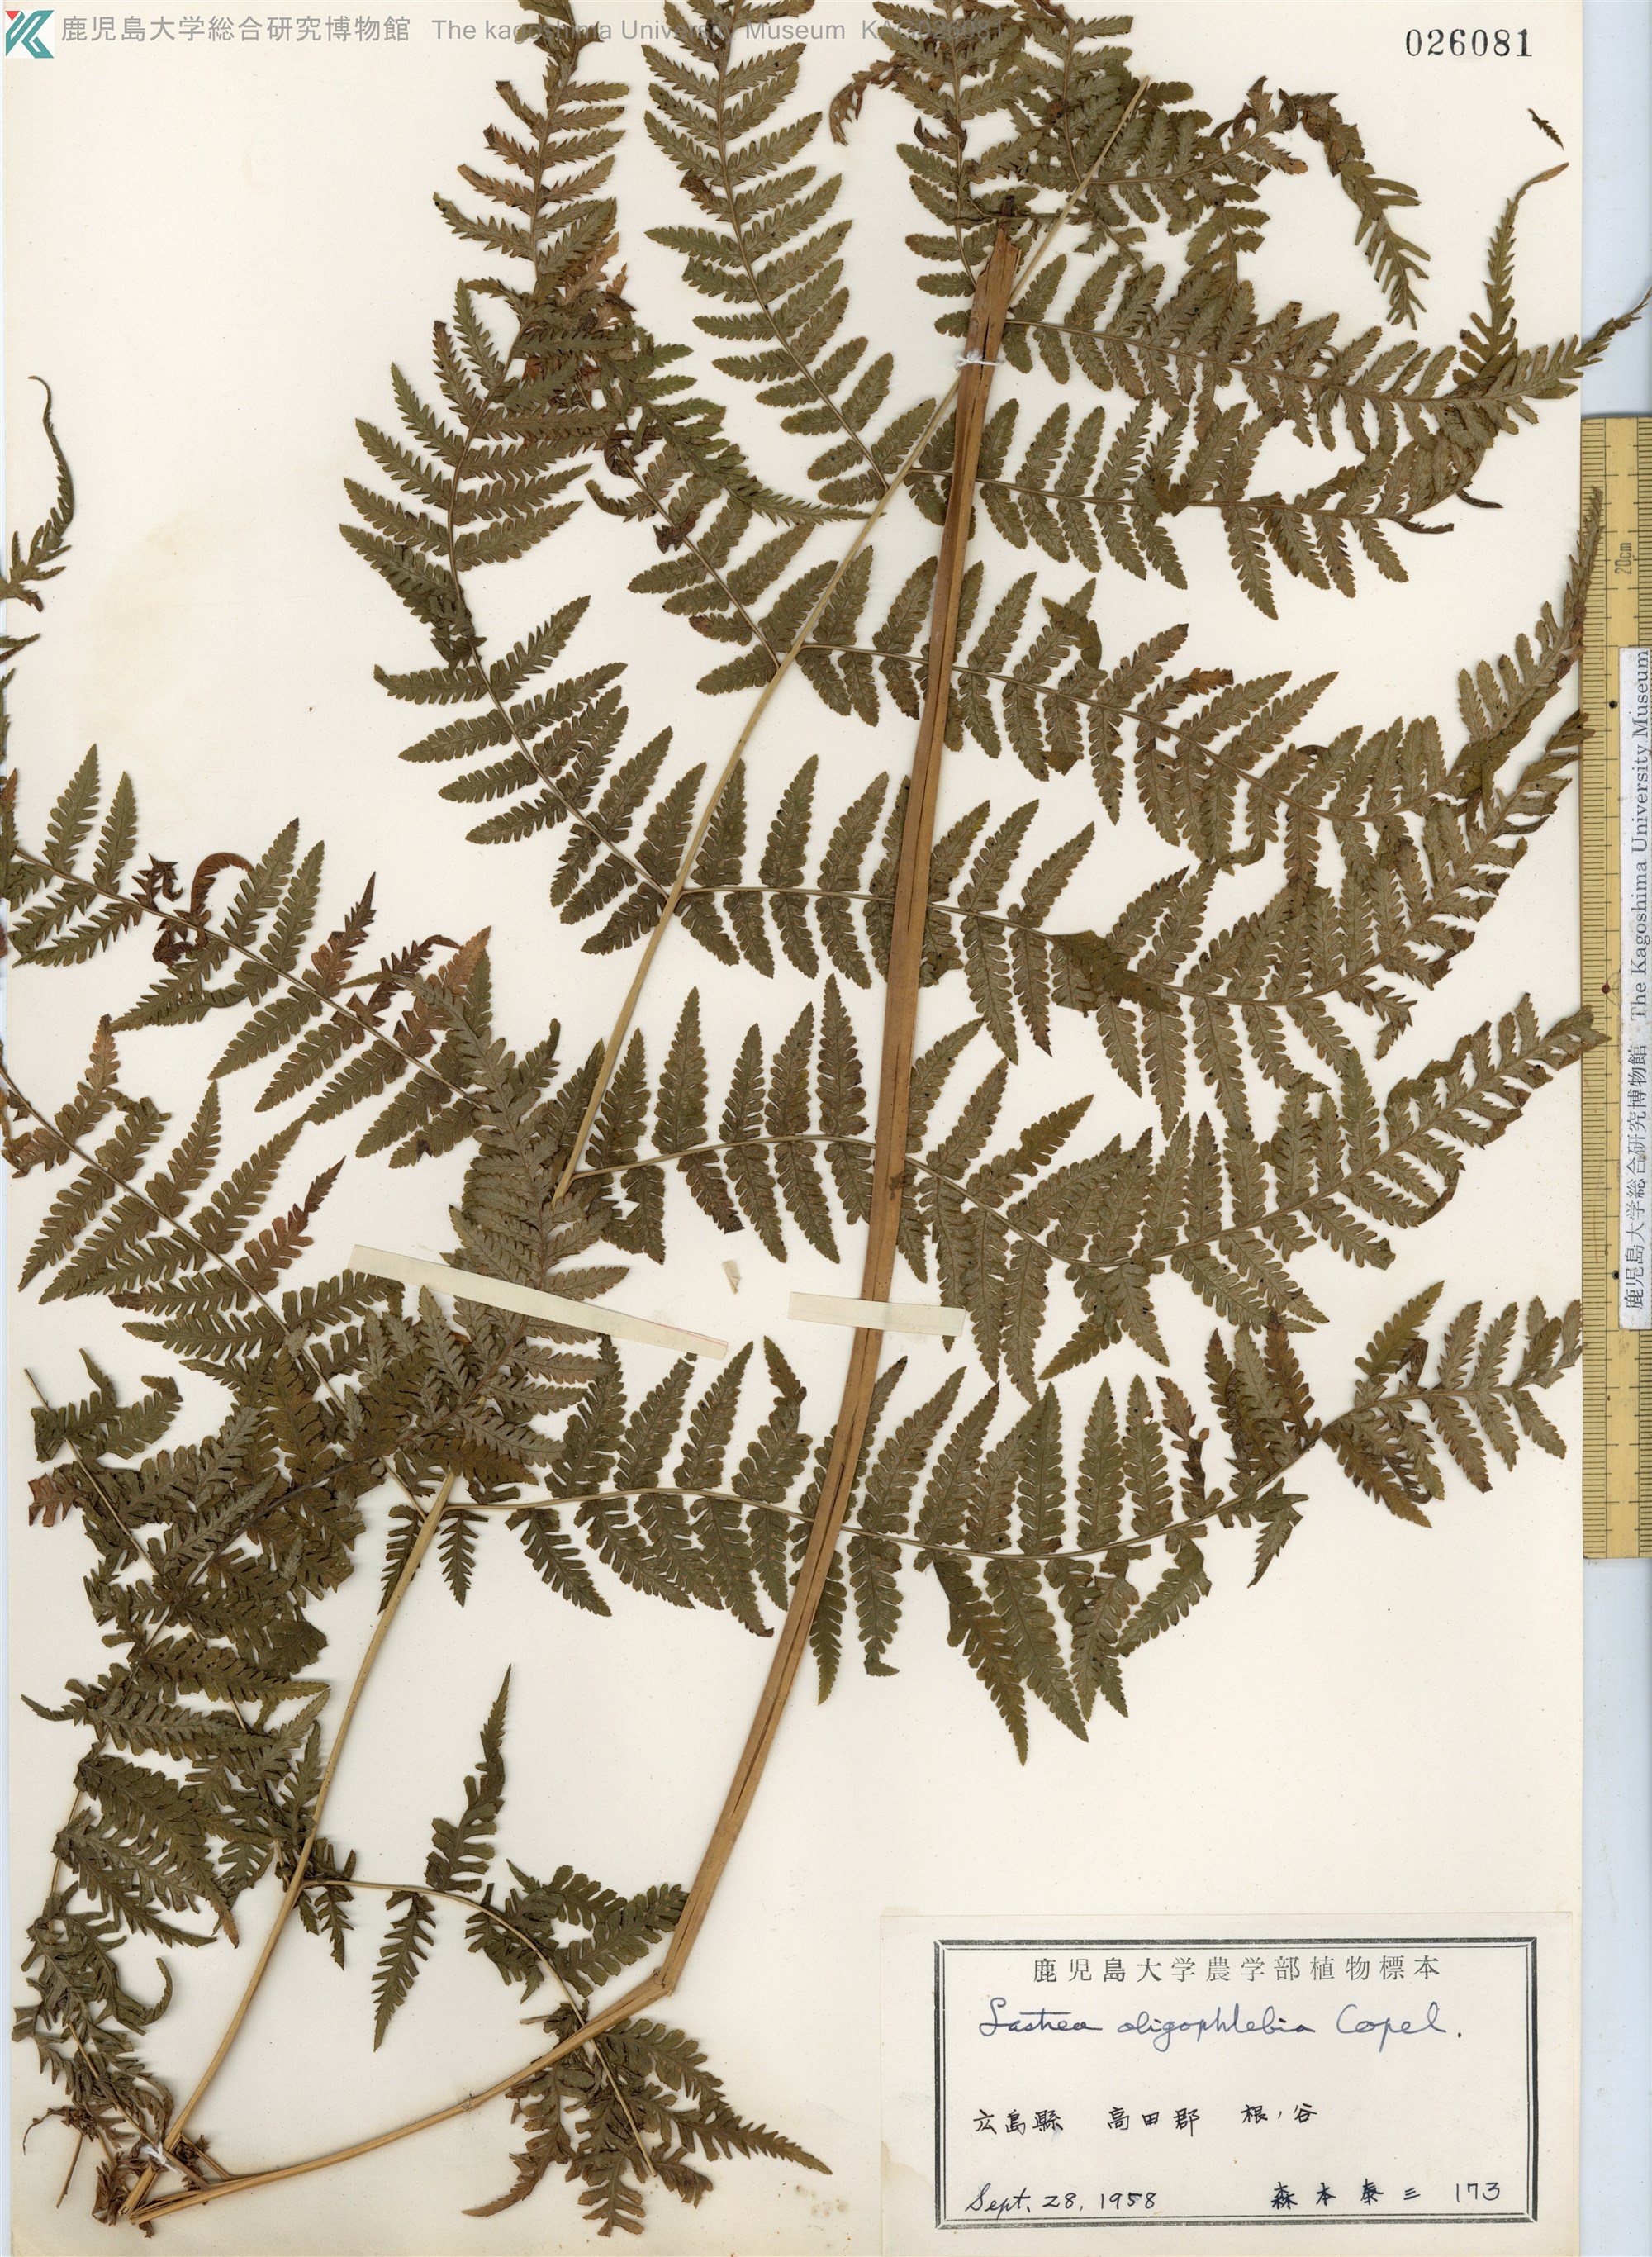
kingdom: Plantae
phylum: Tracheophyta
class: Polypodiopsida
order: Polypodiales
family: Thelypteridaceae
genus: Macrothelypteris
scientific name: Macrothelypteris oligophlebia
